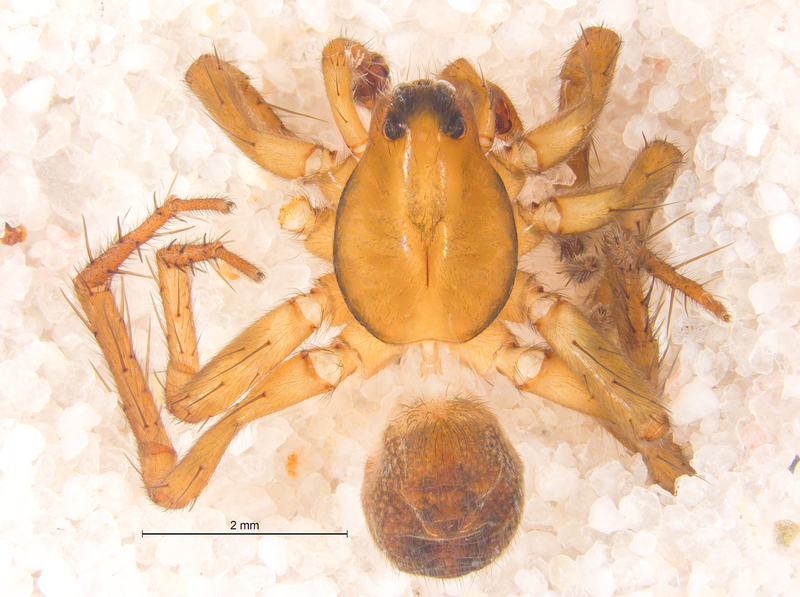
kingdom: Animalia
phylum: Arthropoda
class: Arachnida
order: Araneae
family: Lycosidae
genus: Piratula
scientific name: Piratula uliginosa
